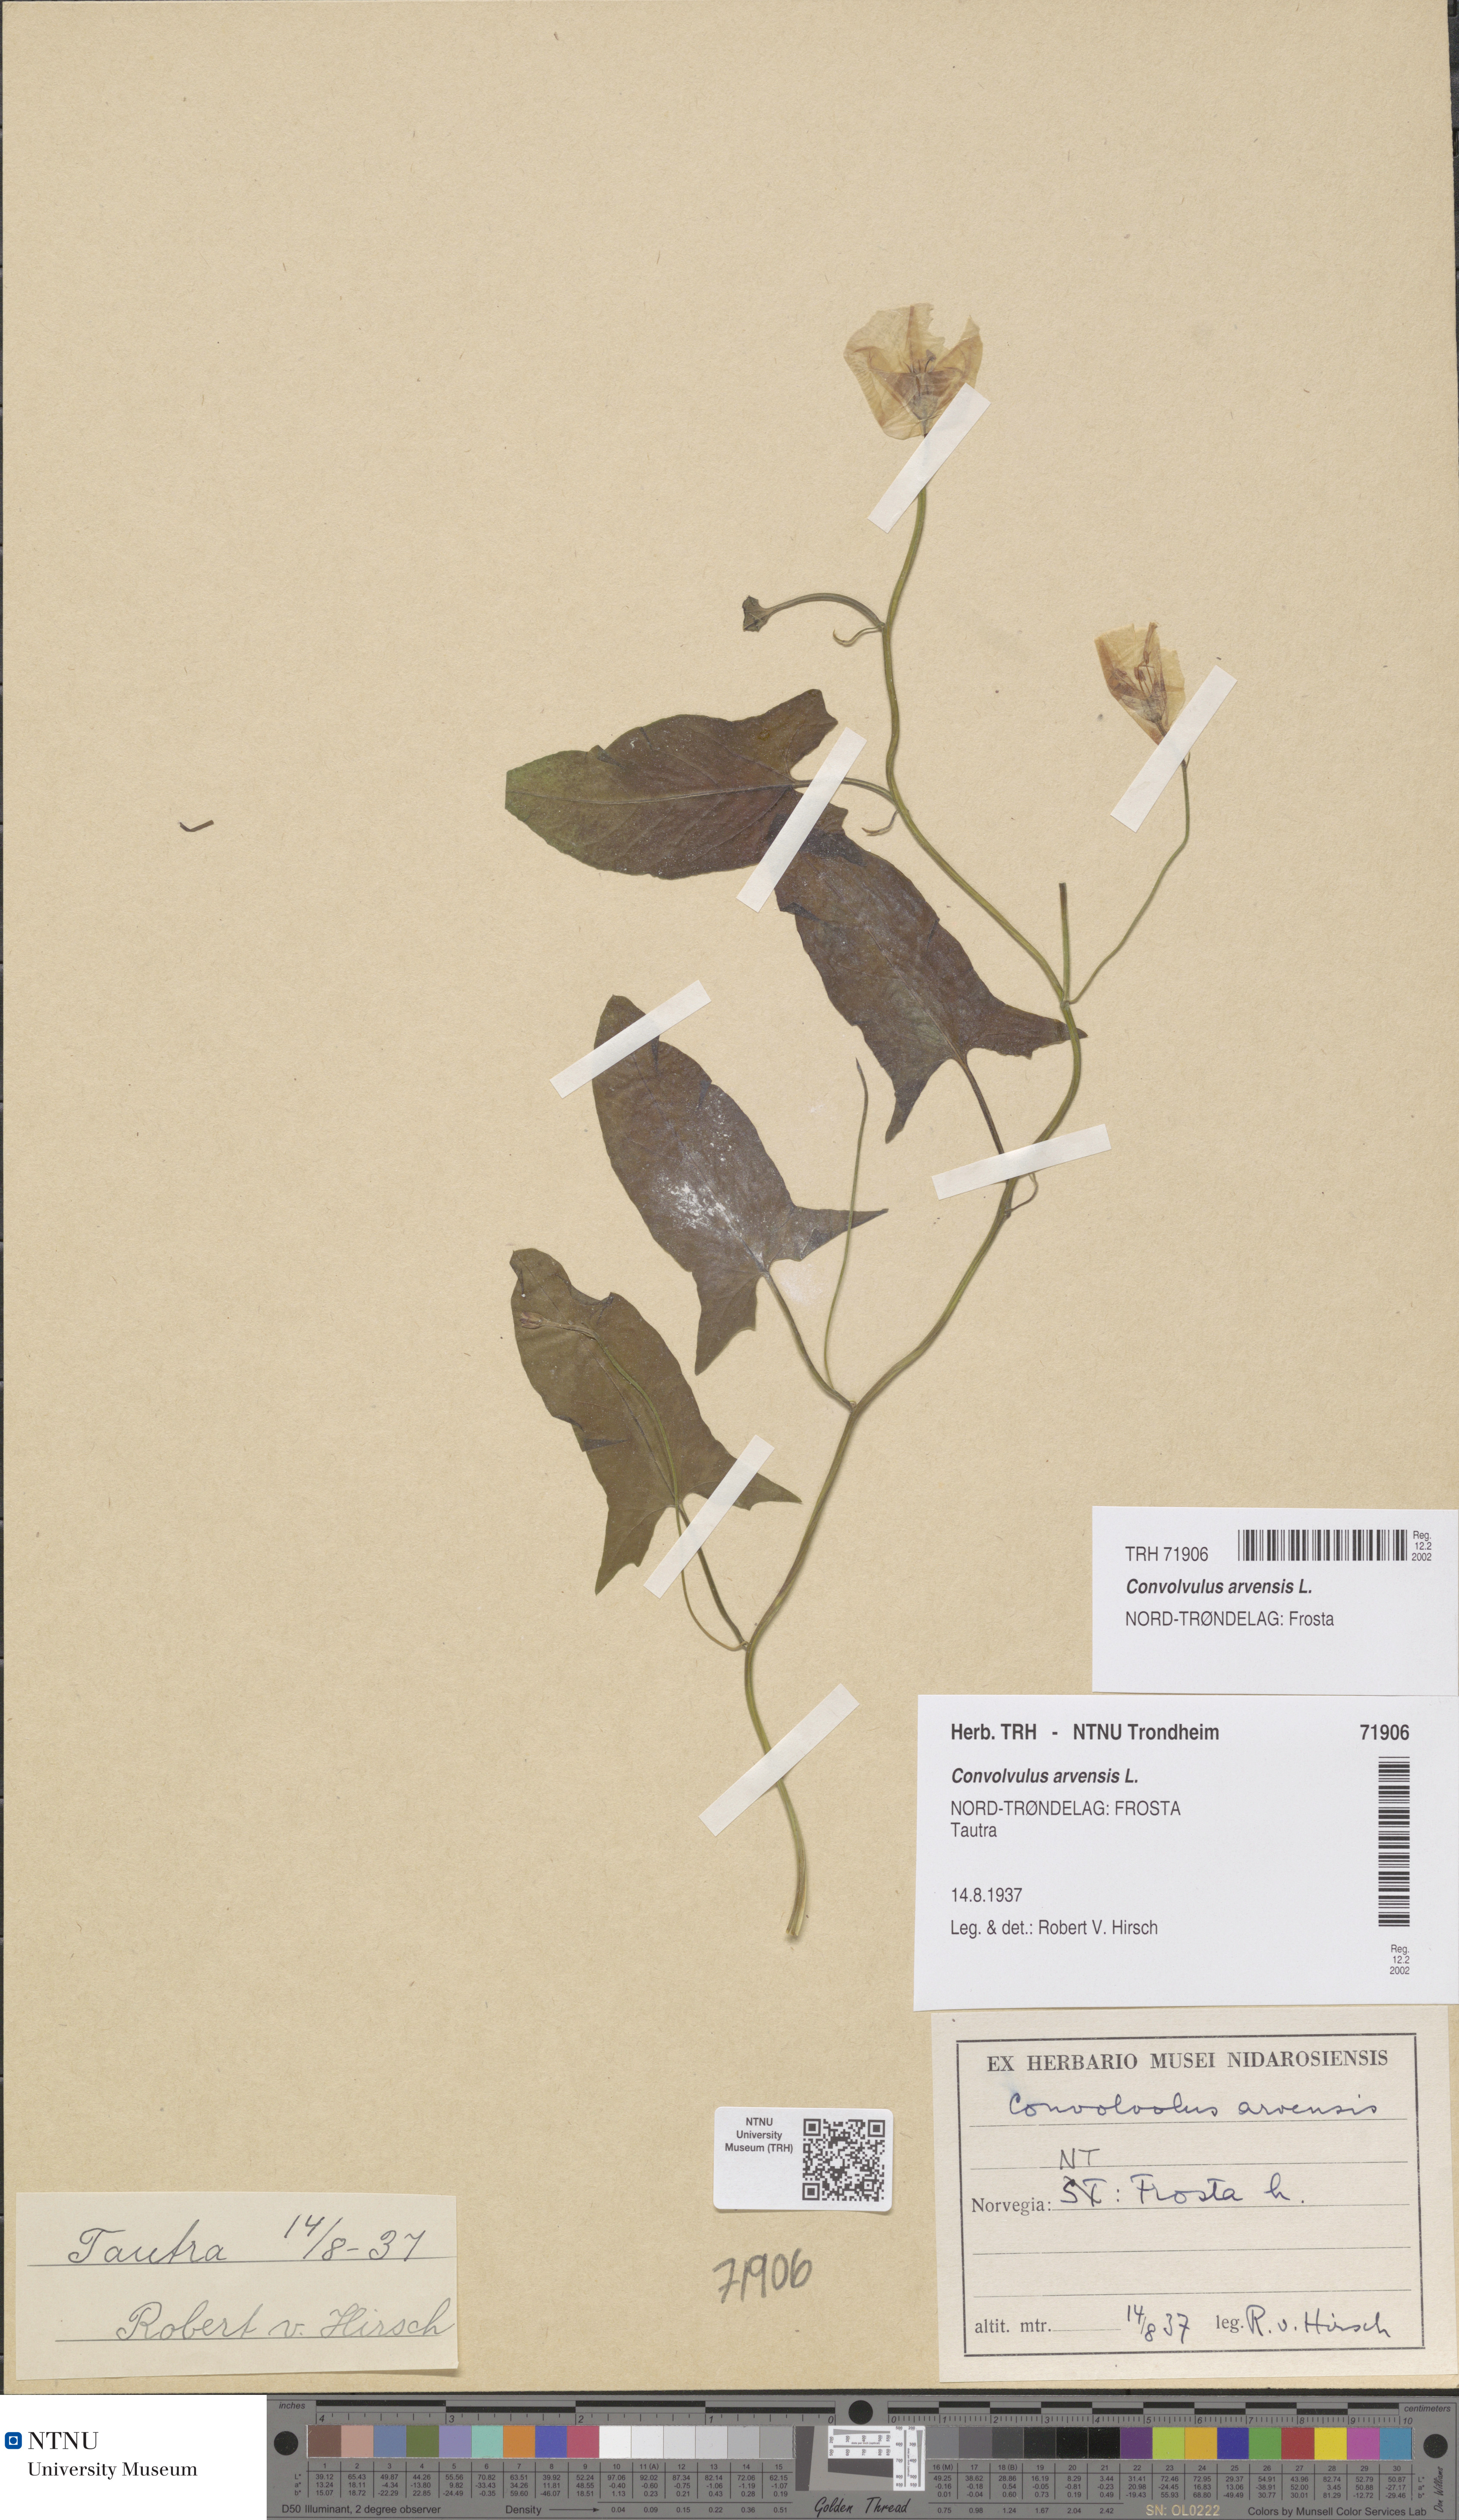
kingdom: Plantae
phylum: Tracheophyta
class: Magnoliopsida
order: Solanales
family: Convolvulaceae
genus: Convolvulus
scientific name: Convolvulus arvensis
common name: Field bindweed
